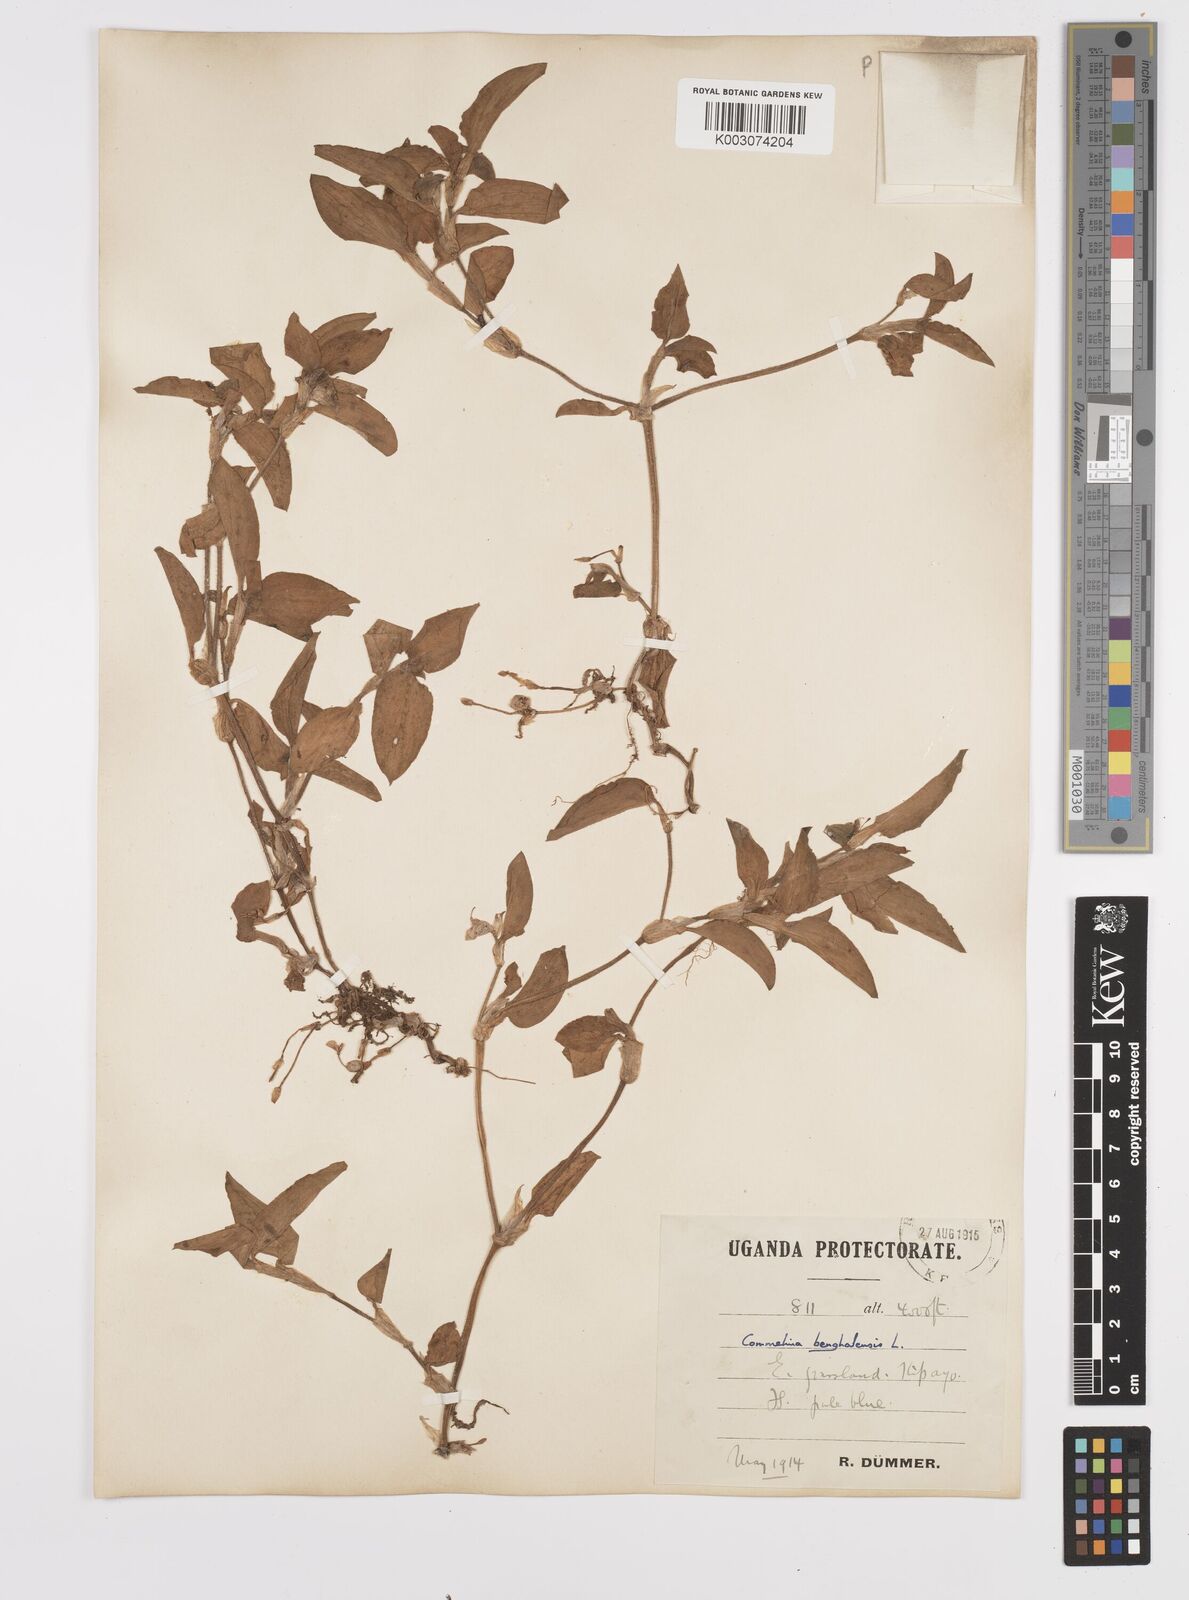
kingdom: Plantae
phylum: Tracheophyta
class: Liliopsida
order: Commelinales
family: Commelinaceae
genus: Commelina
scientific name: Commelina benghalensis
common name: Jio
